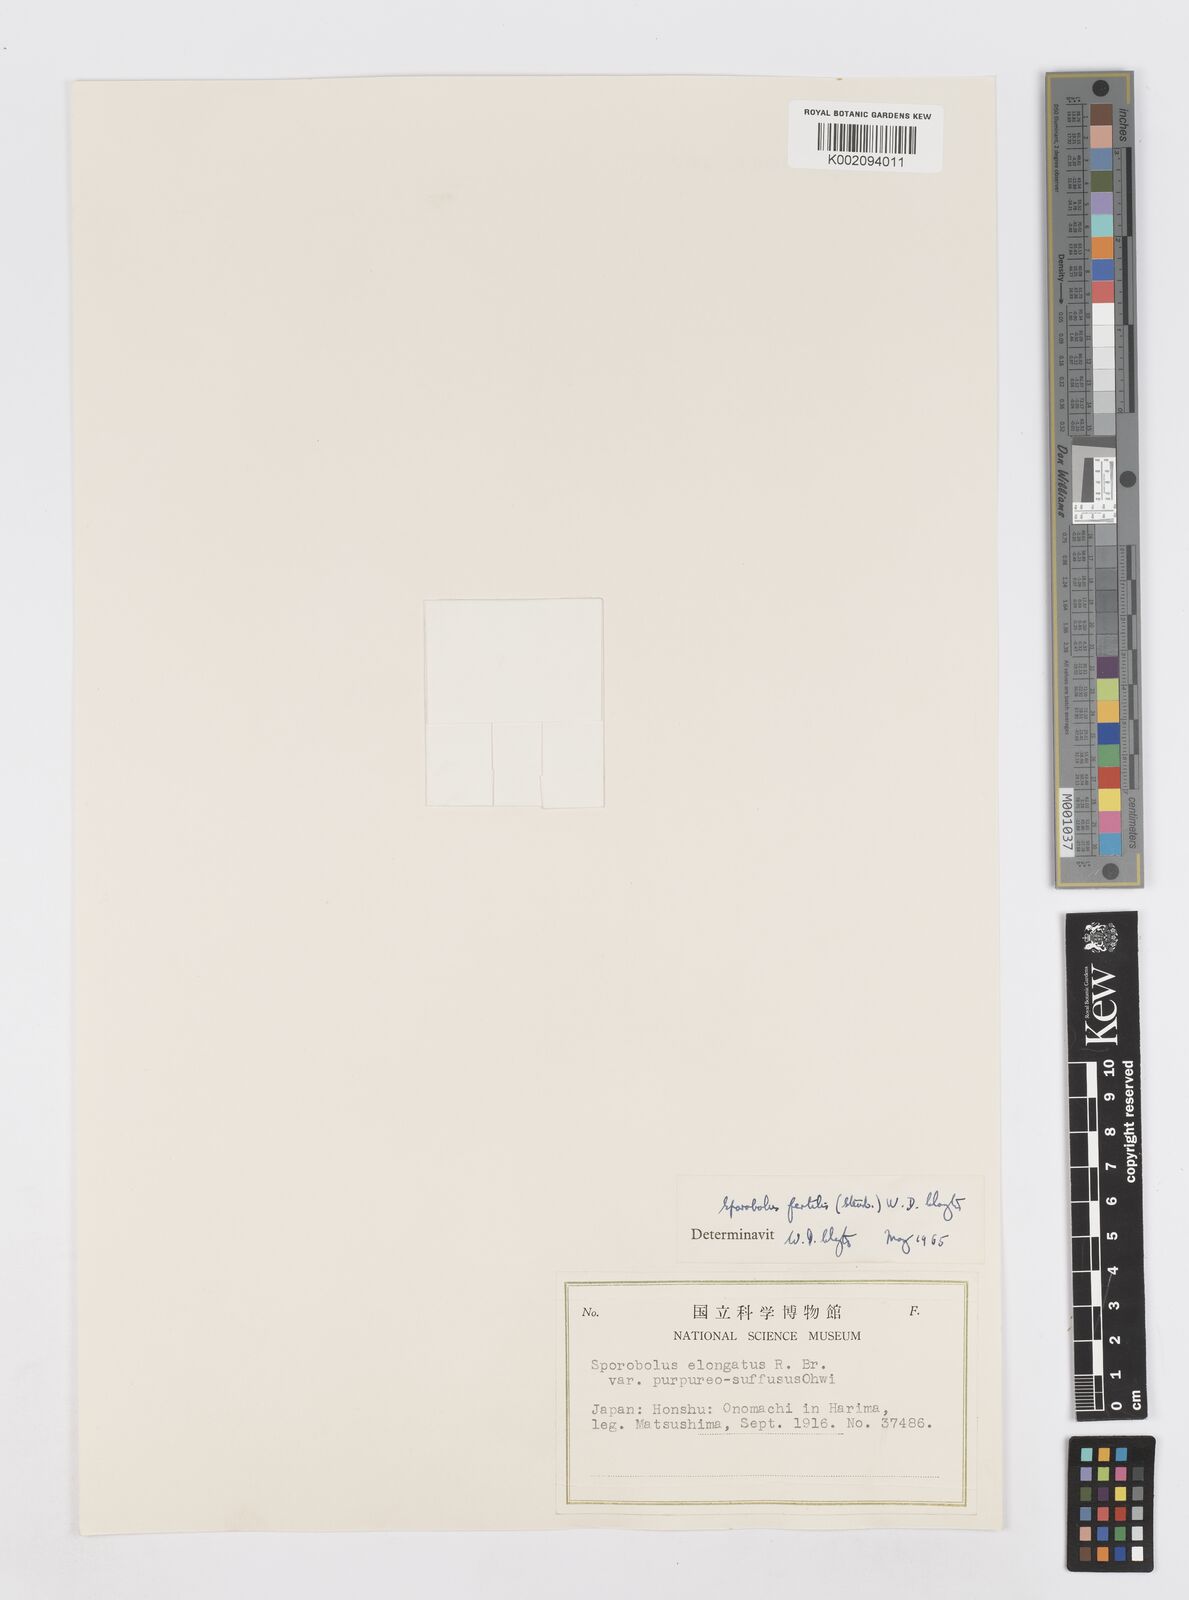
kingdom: Plantae
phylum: Tracheophyta
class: Liliopsida
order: Poales
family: Poaceae
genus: Sporobolus
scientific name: Sporobolus fertilis
